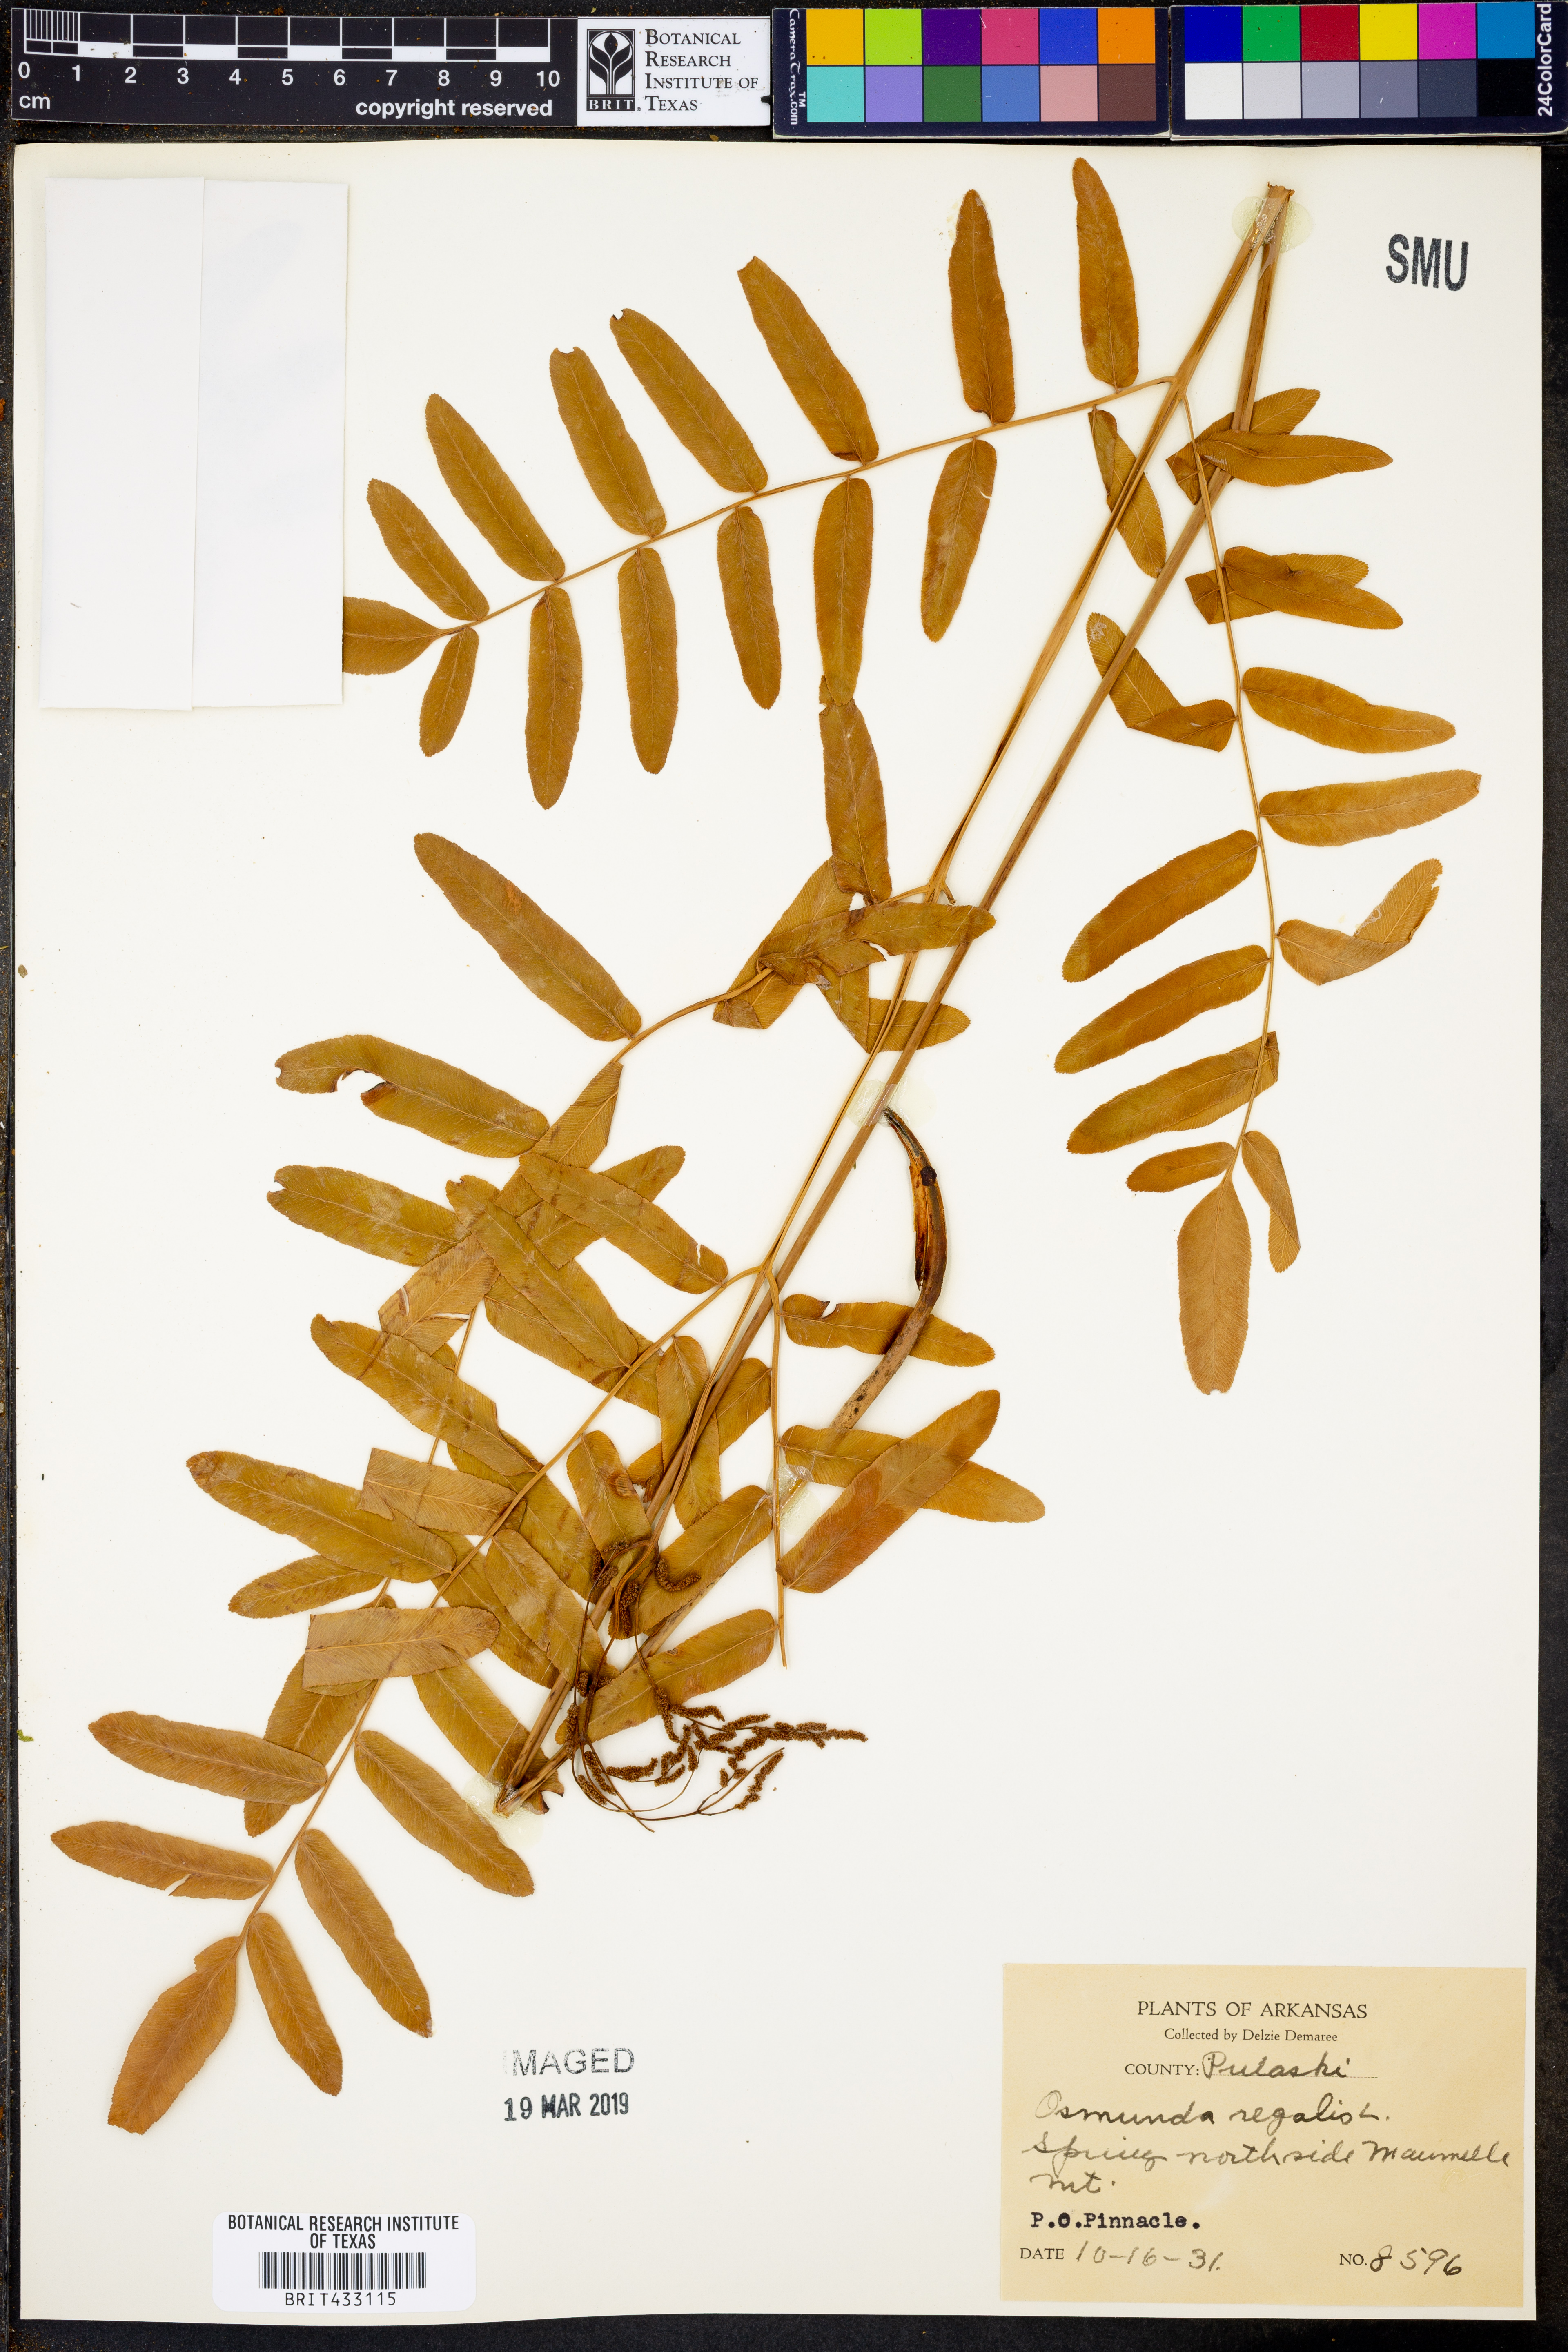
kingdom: Plantae
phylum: Tracheophyta
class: Polypodiopsida
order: Osmundales
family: Osmundaceae
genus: Osmunda
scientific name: Osmunda regalis
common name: Royal fern
